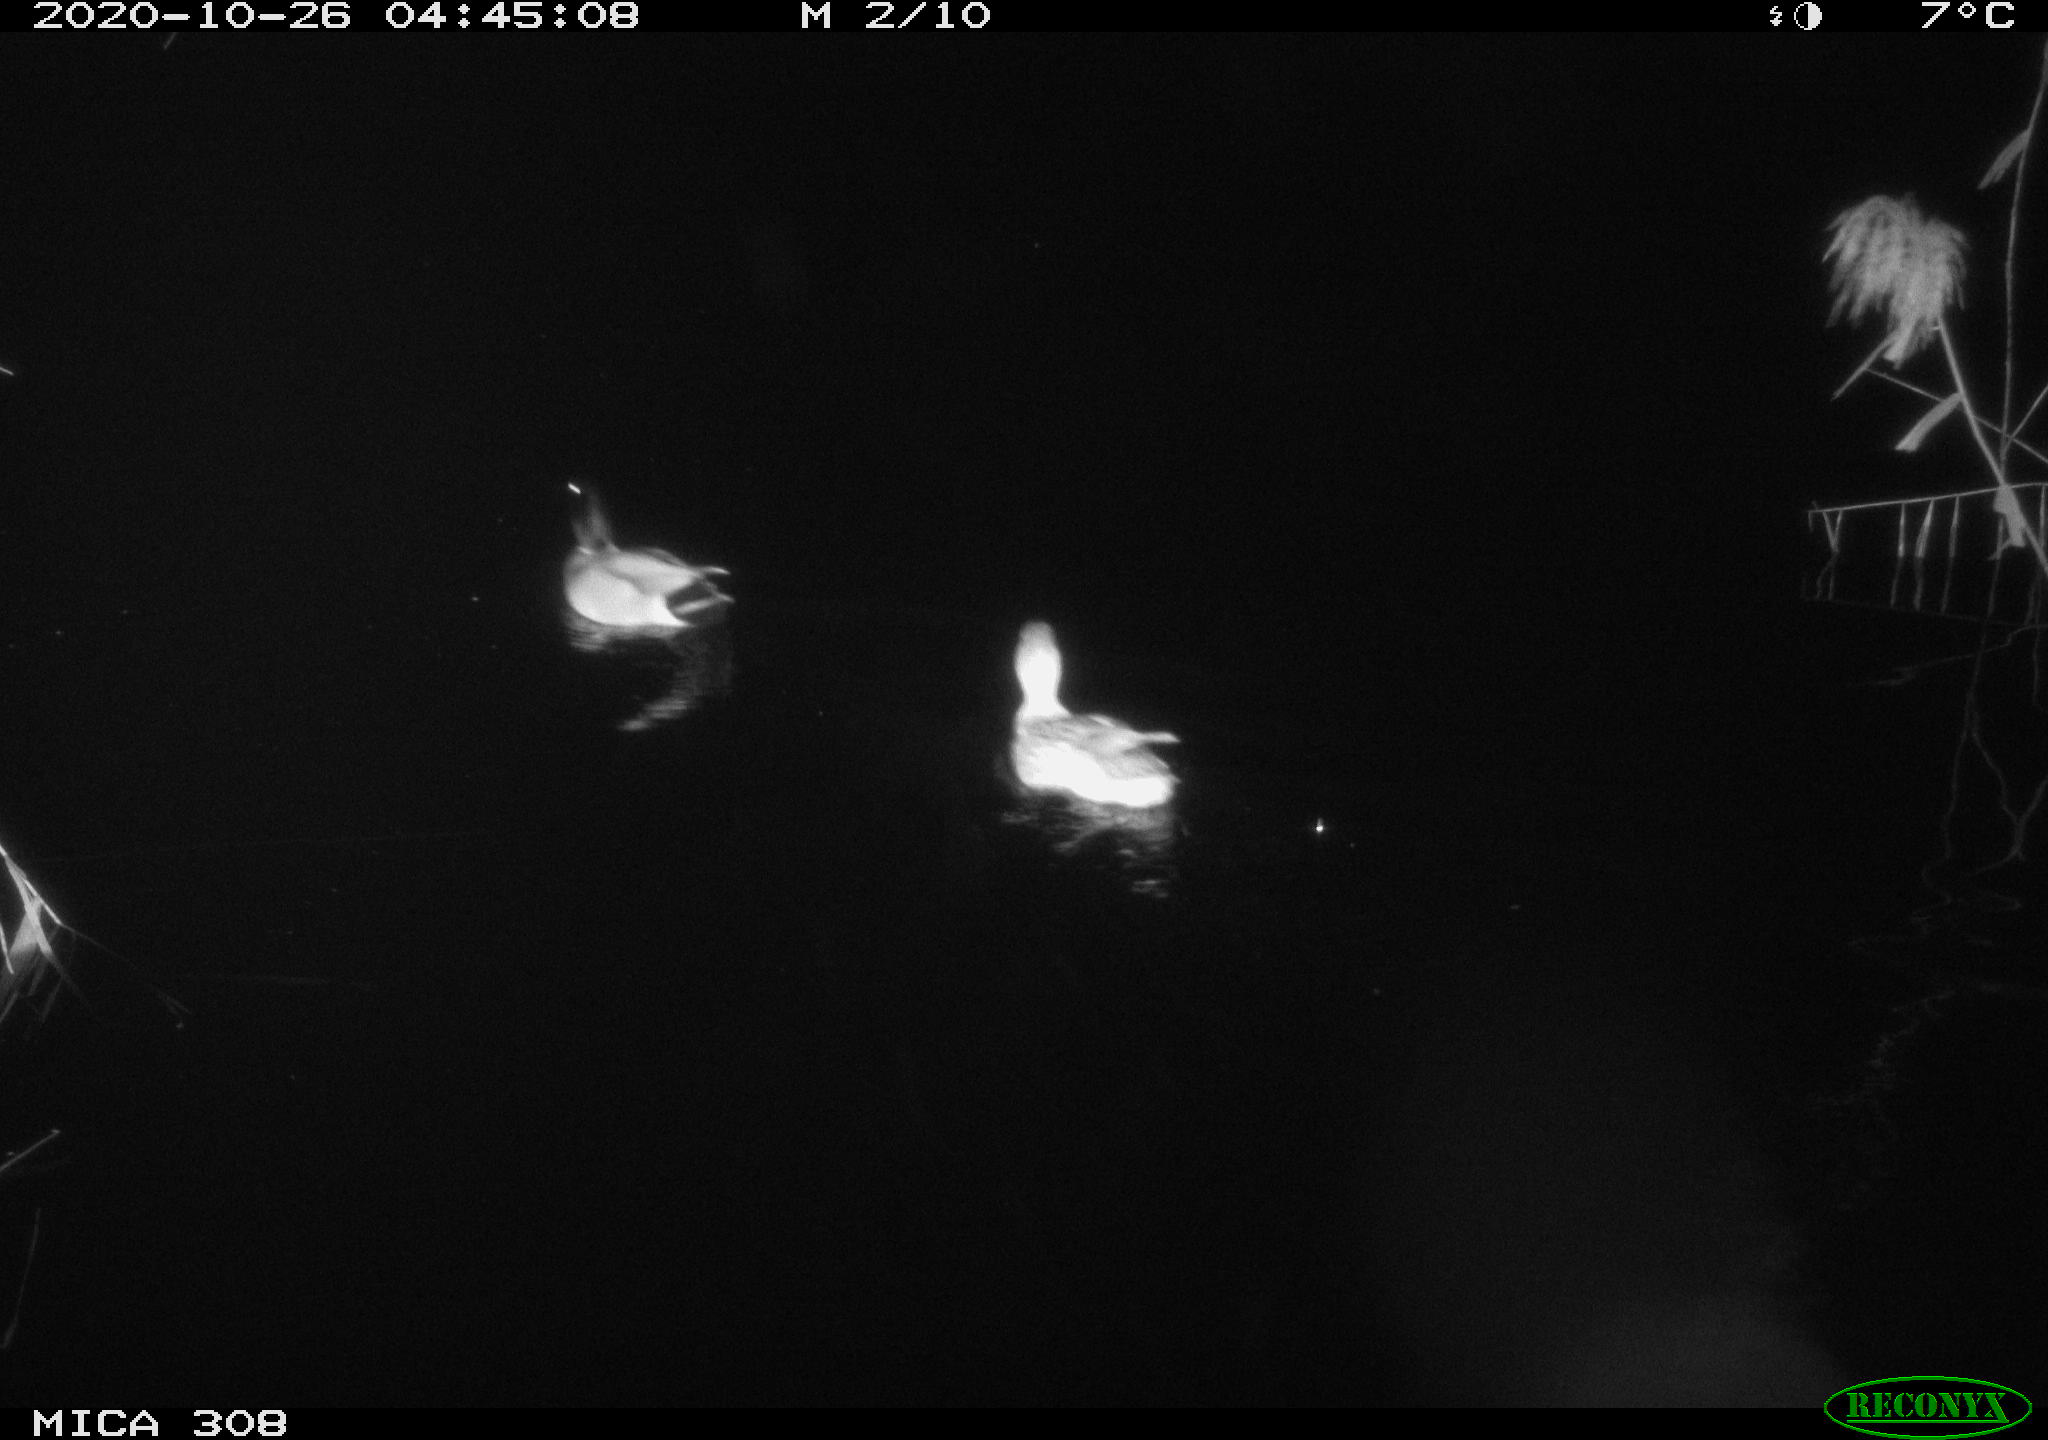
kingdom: Animalia
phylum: Chordata
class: Aves
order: Anseriformes
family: Anatidae
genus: Anas
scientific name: Anas
